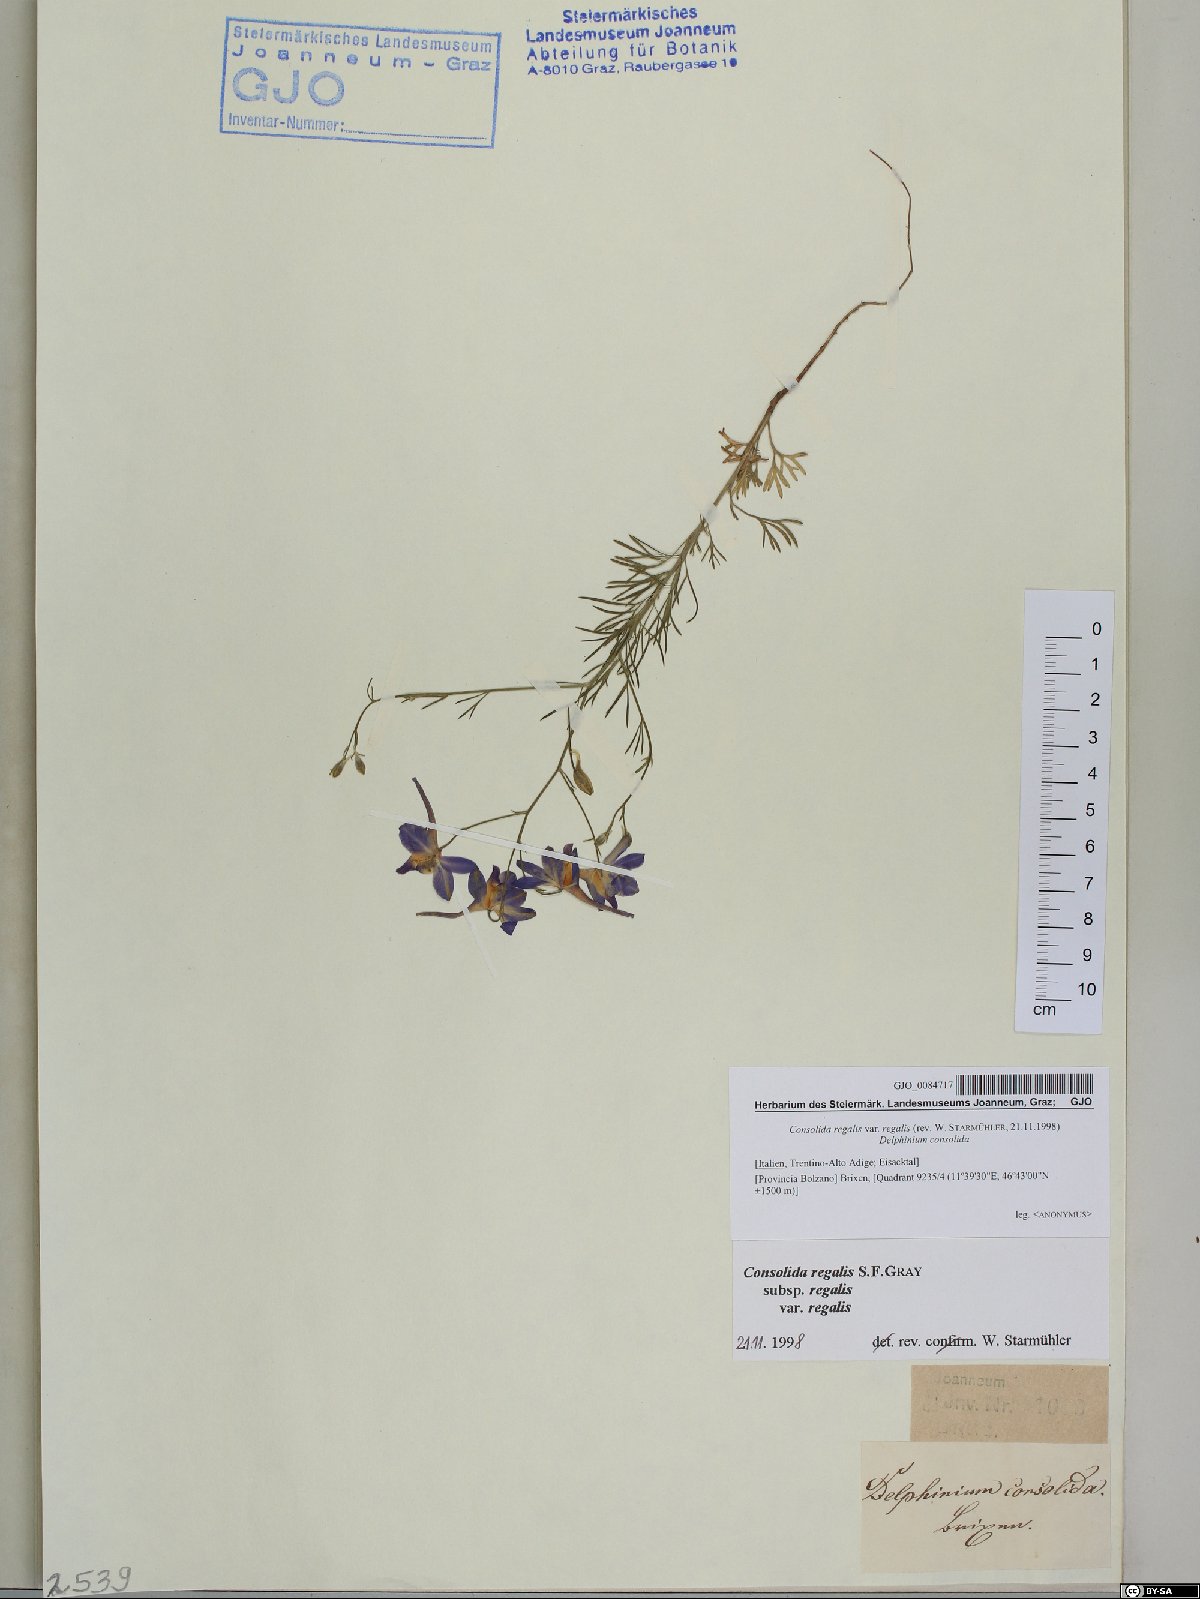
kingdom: Plantae
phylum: Tracheophyta
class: Magnoliopsida
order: Ranunculales
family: Ranunculaceae
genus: Delphinium
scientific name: Delphinium consolida
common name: Branching larkspur
